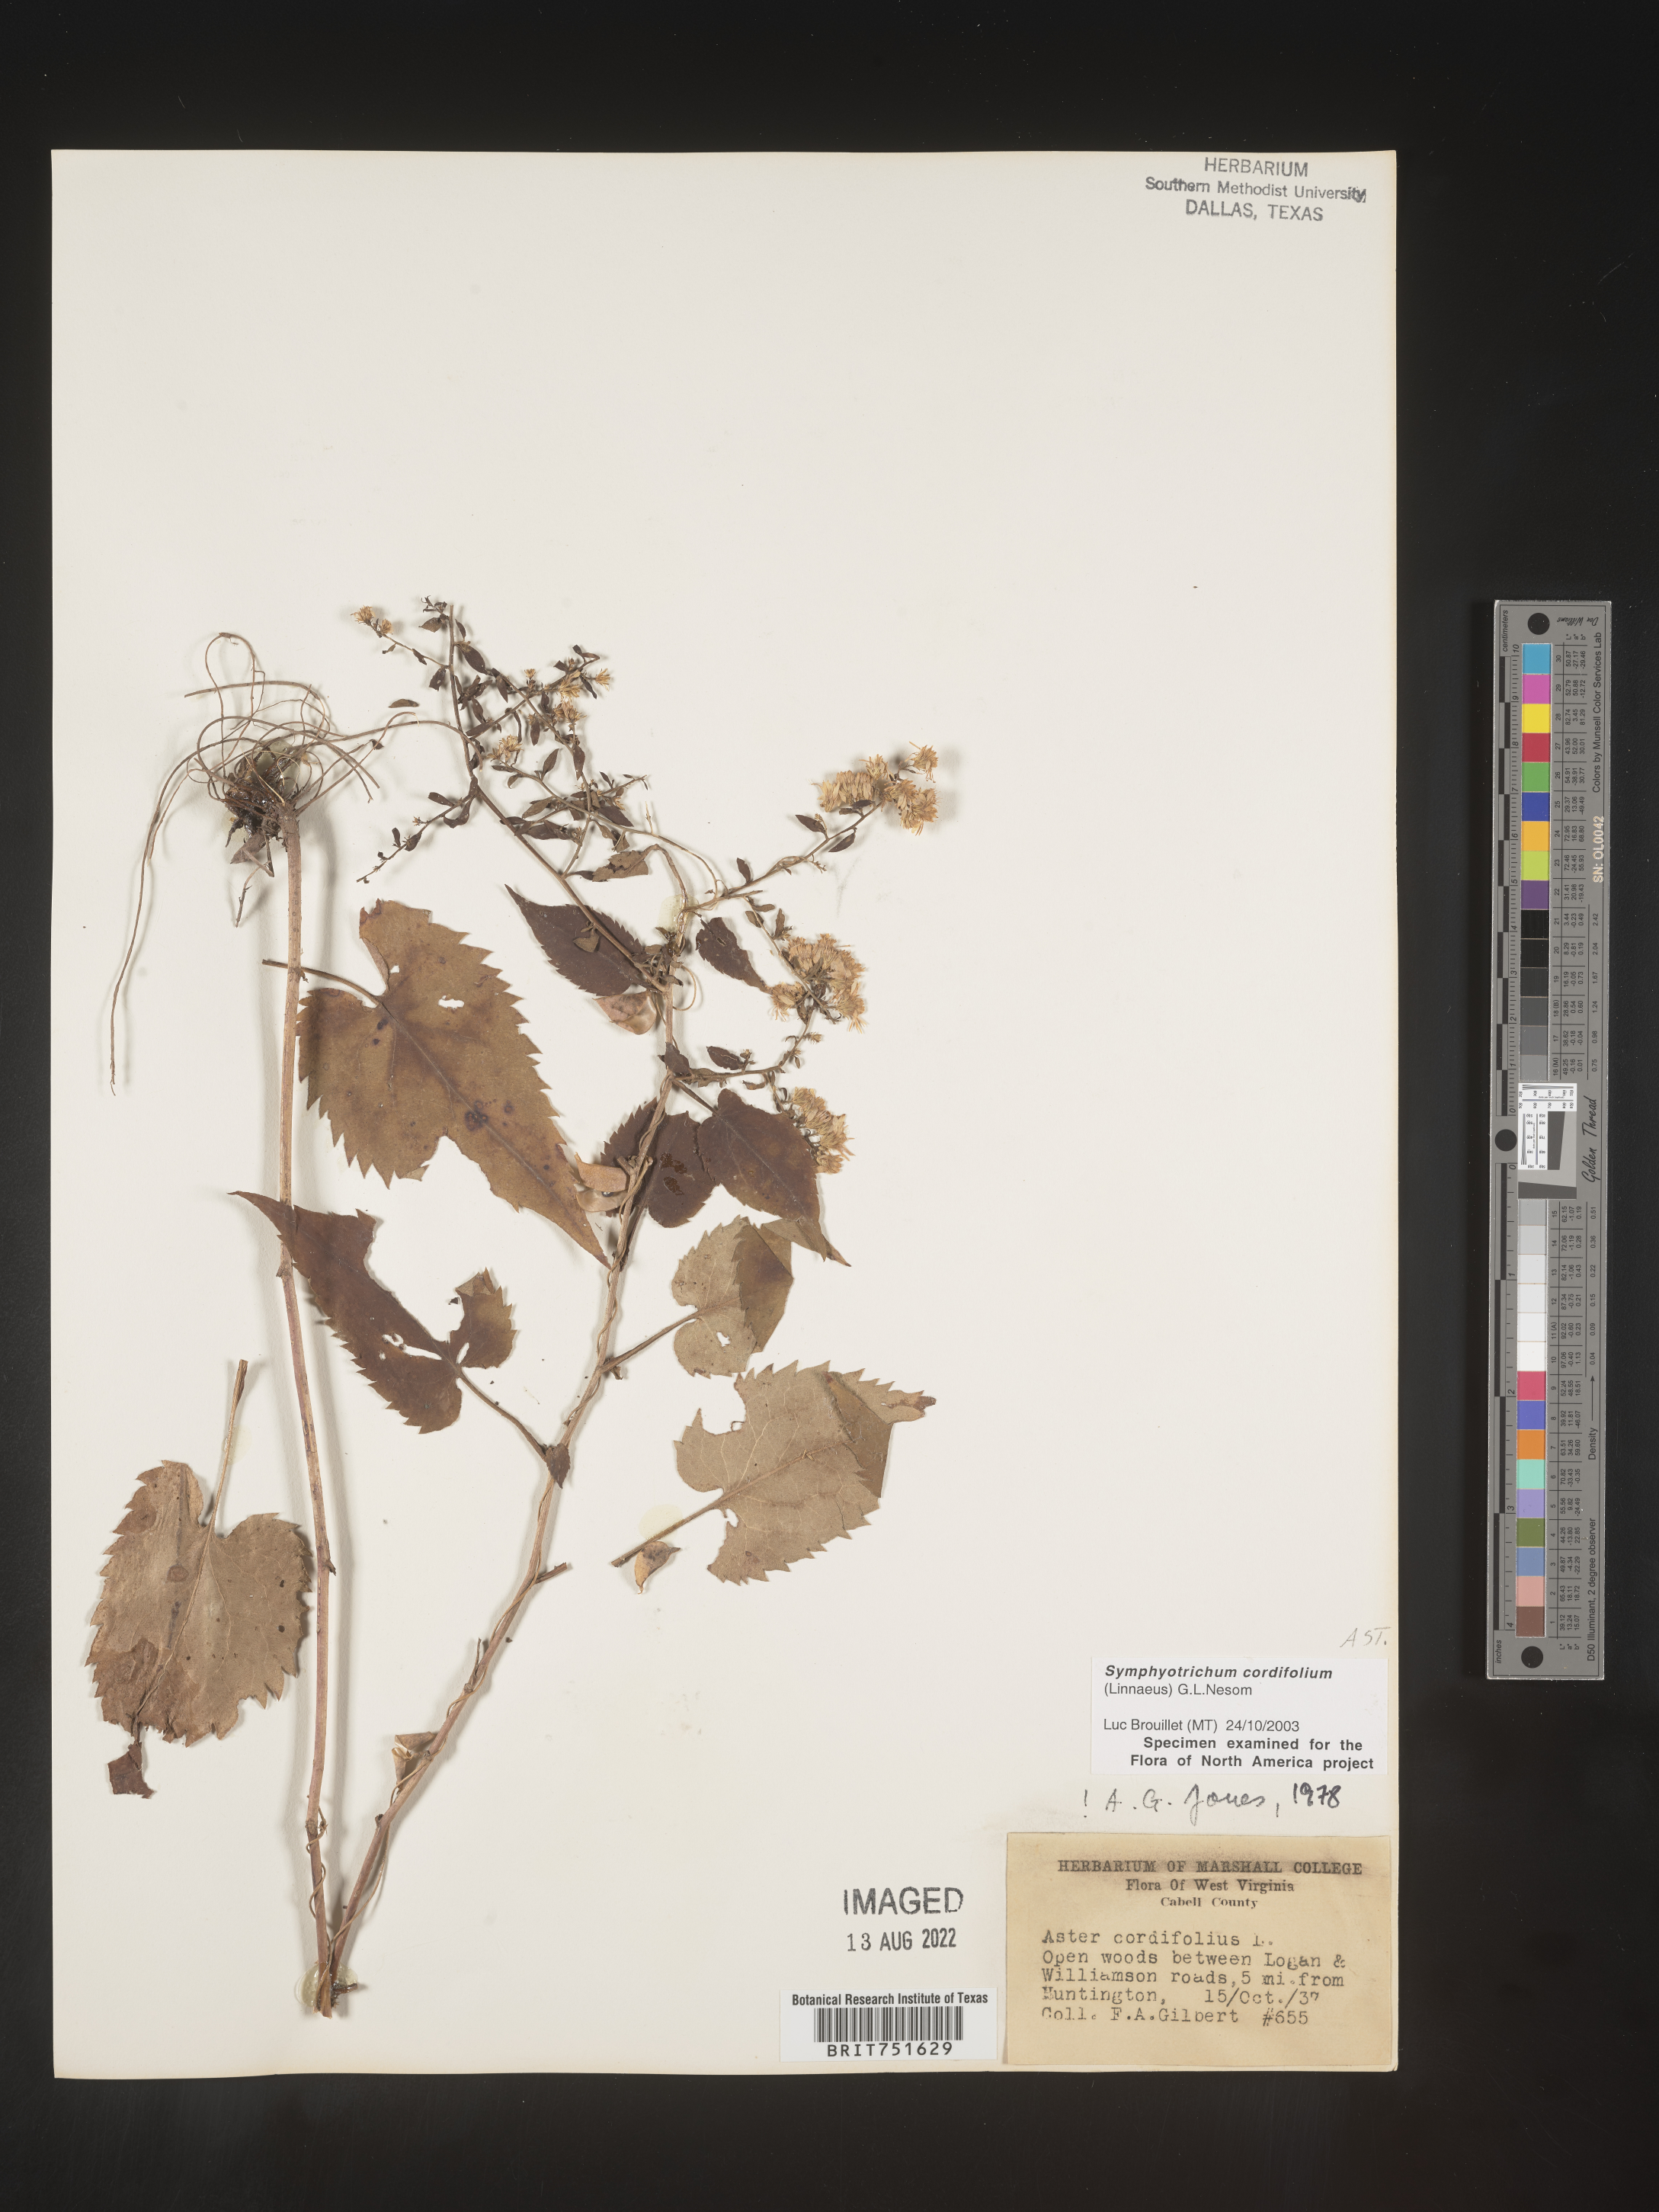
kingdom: Plantae
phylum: Tracheophyta
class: Magnoliopsida
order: Asterales
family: Asteraceae
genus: Symphyotrichum
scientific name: Symphyotrichum cordifolium
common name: Beeweed
